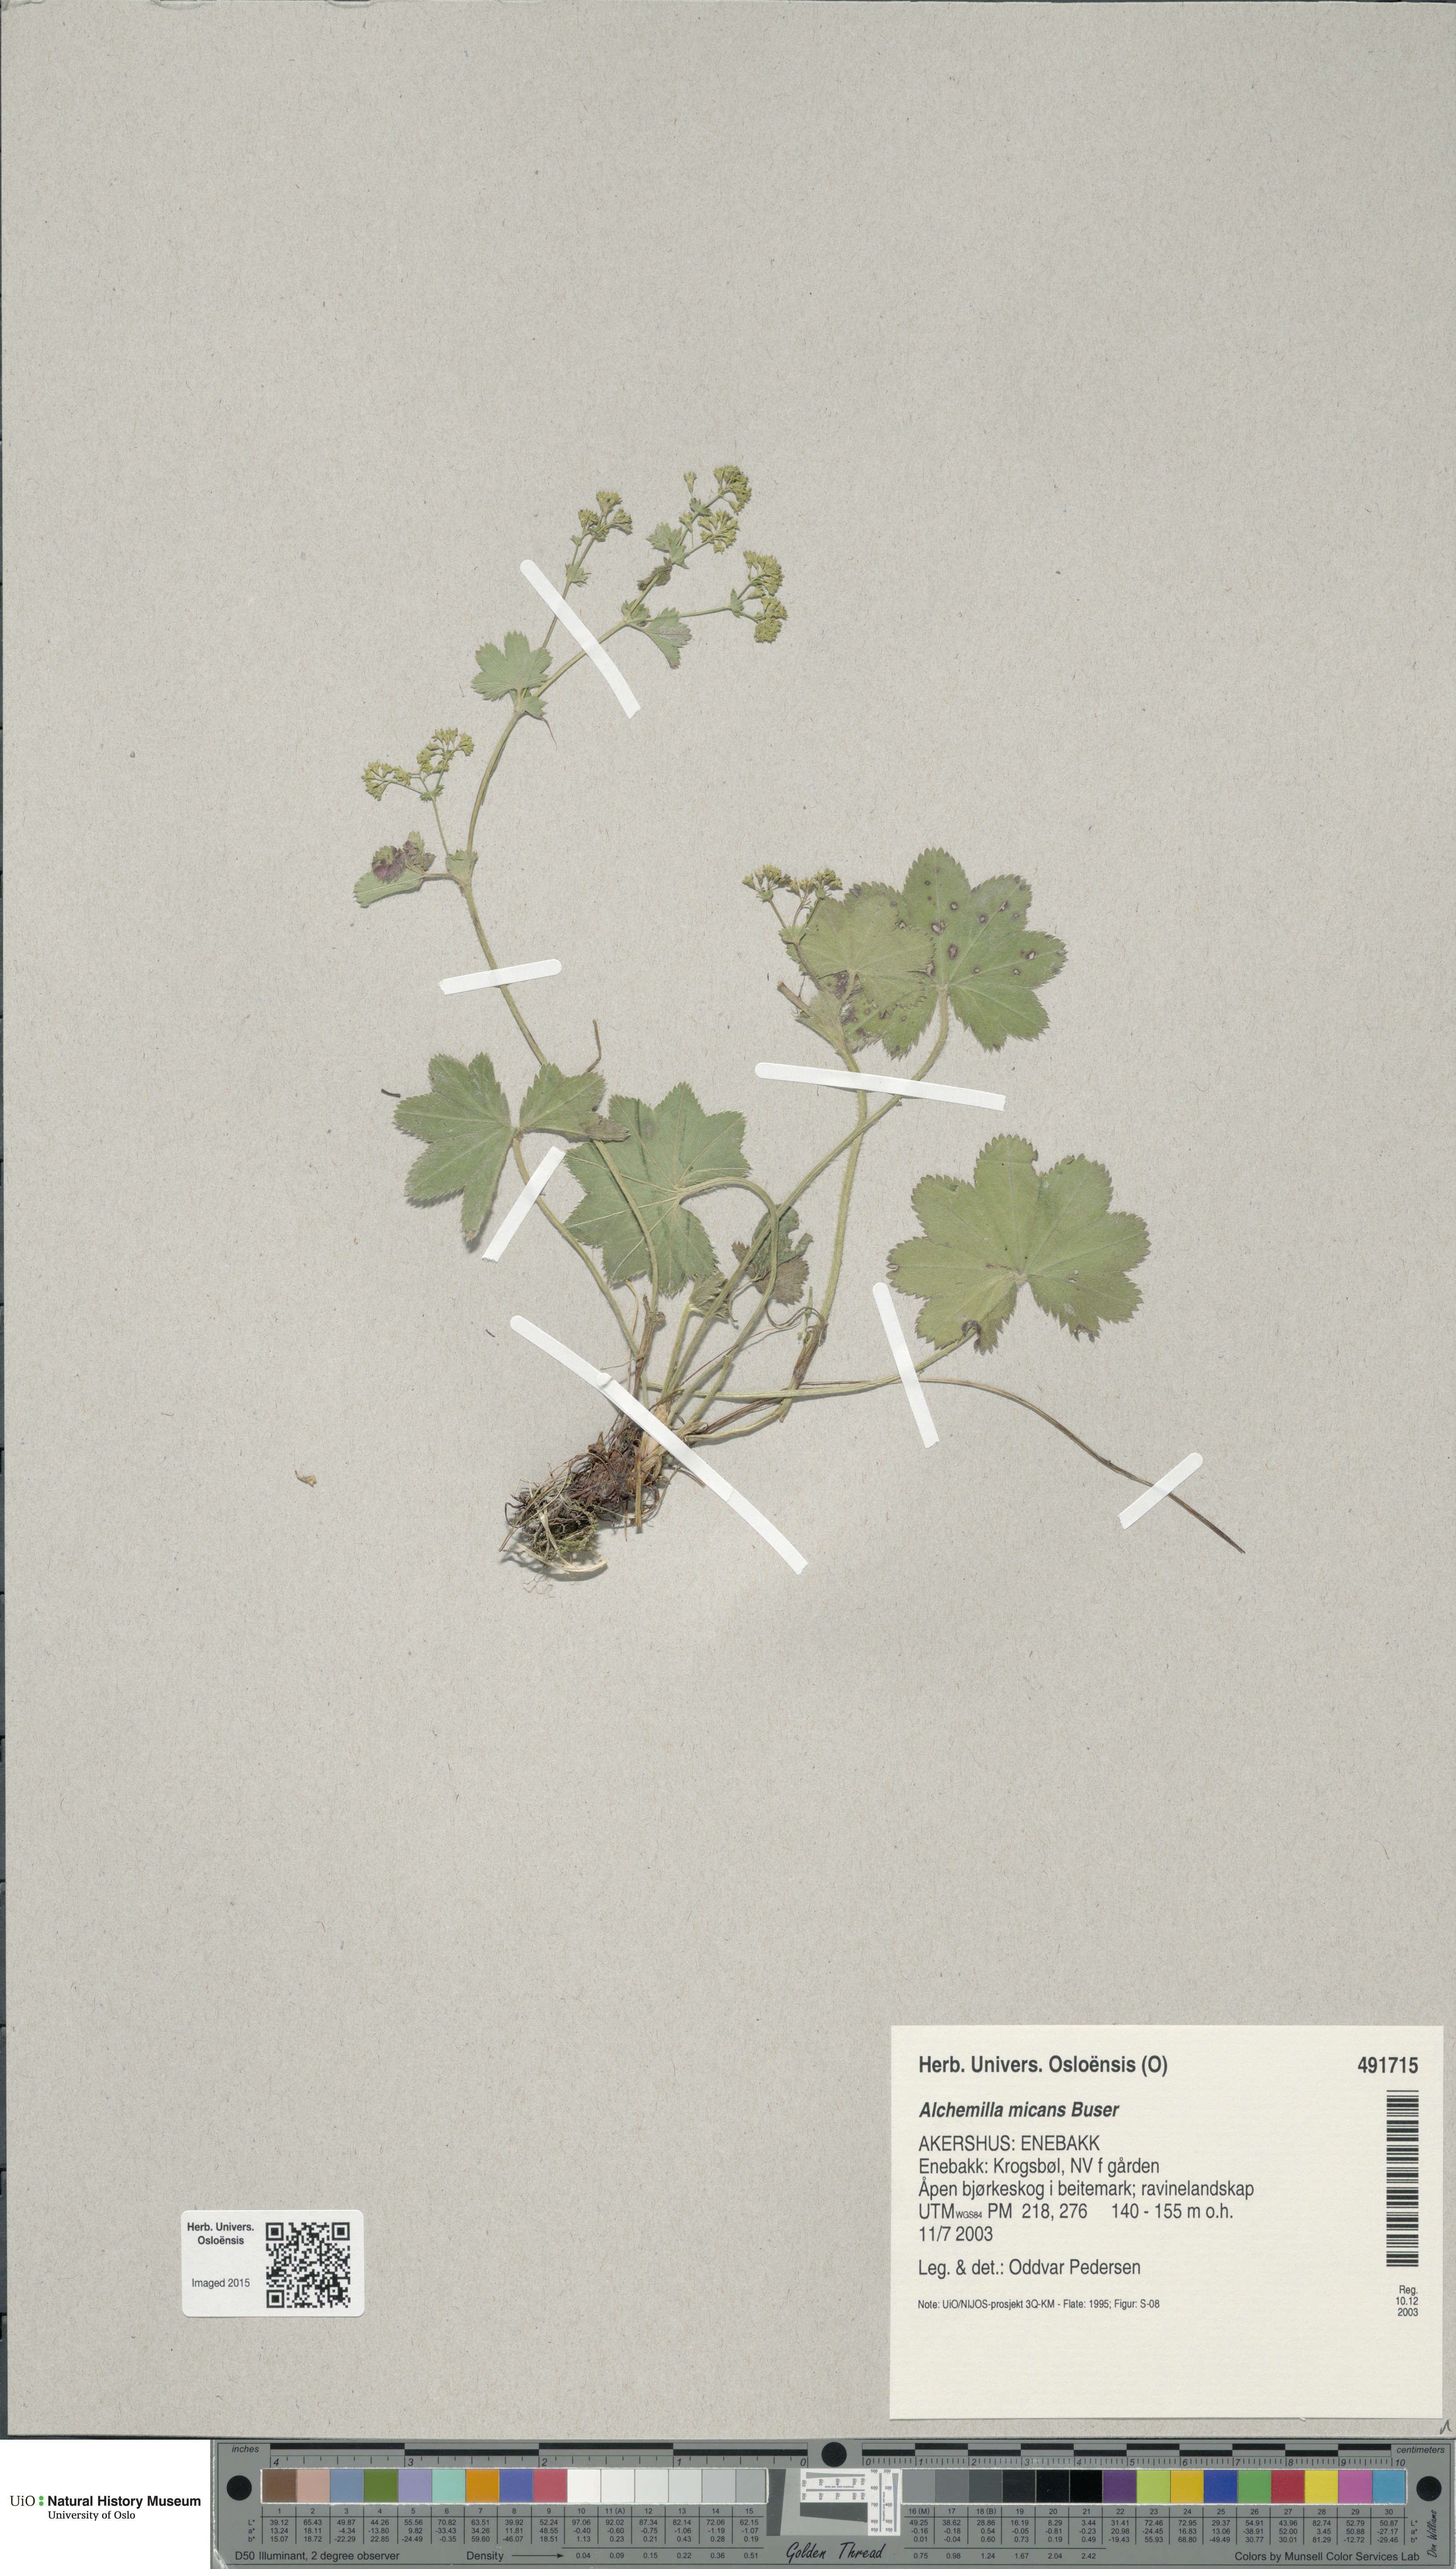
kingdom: Plantae
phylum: Tracheophyta
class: Magnoliopsida
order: Rosales
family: Rosaceae
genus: Alchemilla
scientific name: Alchemilla micans
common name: Gleaming lady's mantle
